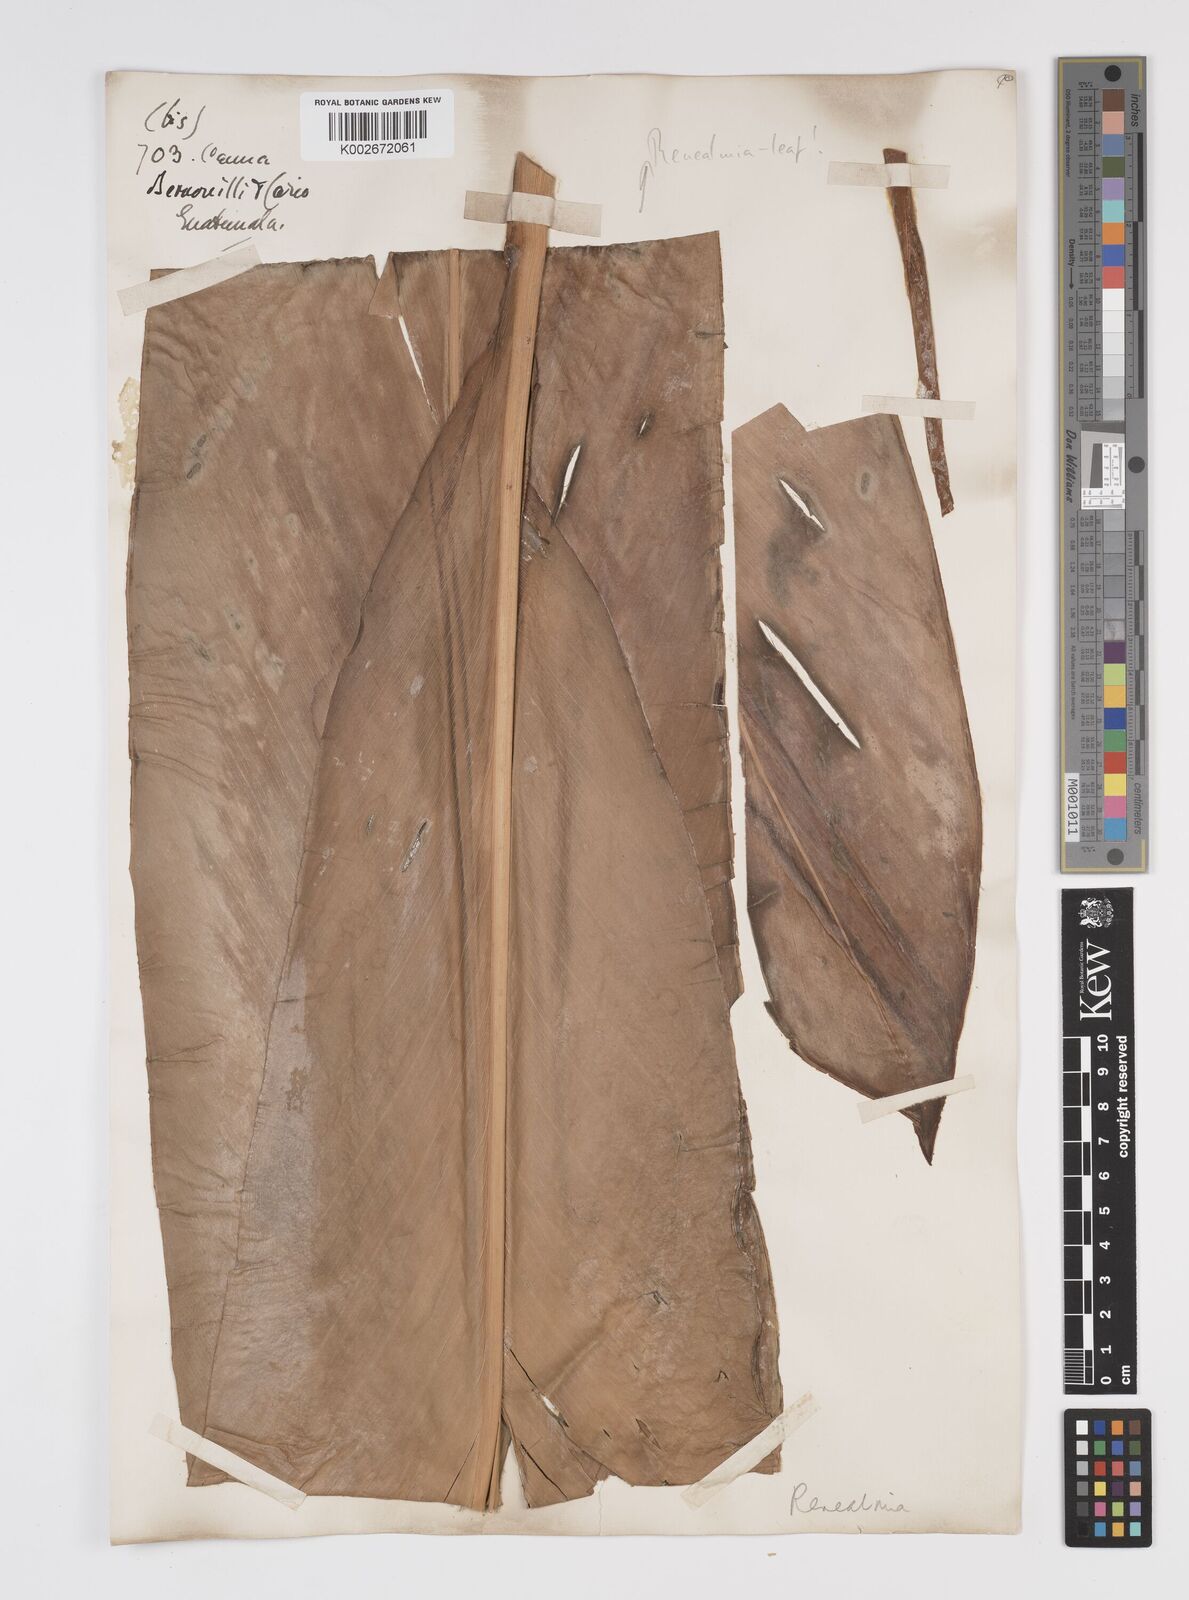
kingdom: Plantae
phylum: Tracheophyta
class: Liliopsida
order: Zingiberales
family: Zingiberaceae
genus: Renealmia
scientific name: Renealmia
